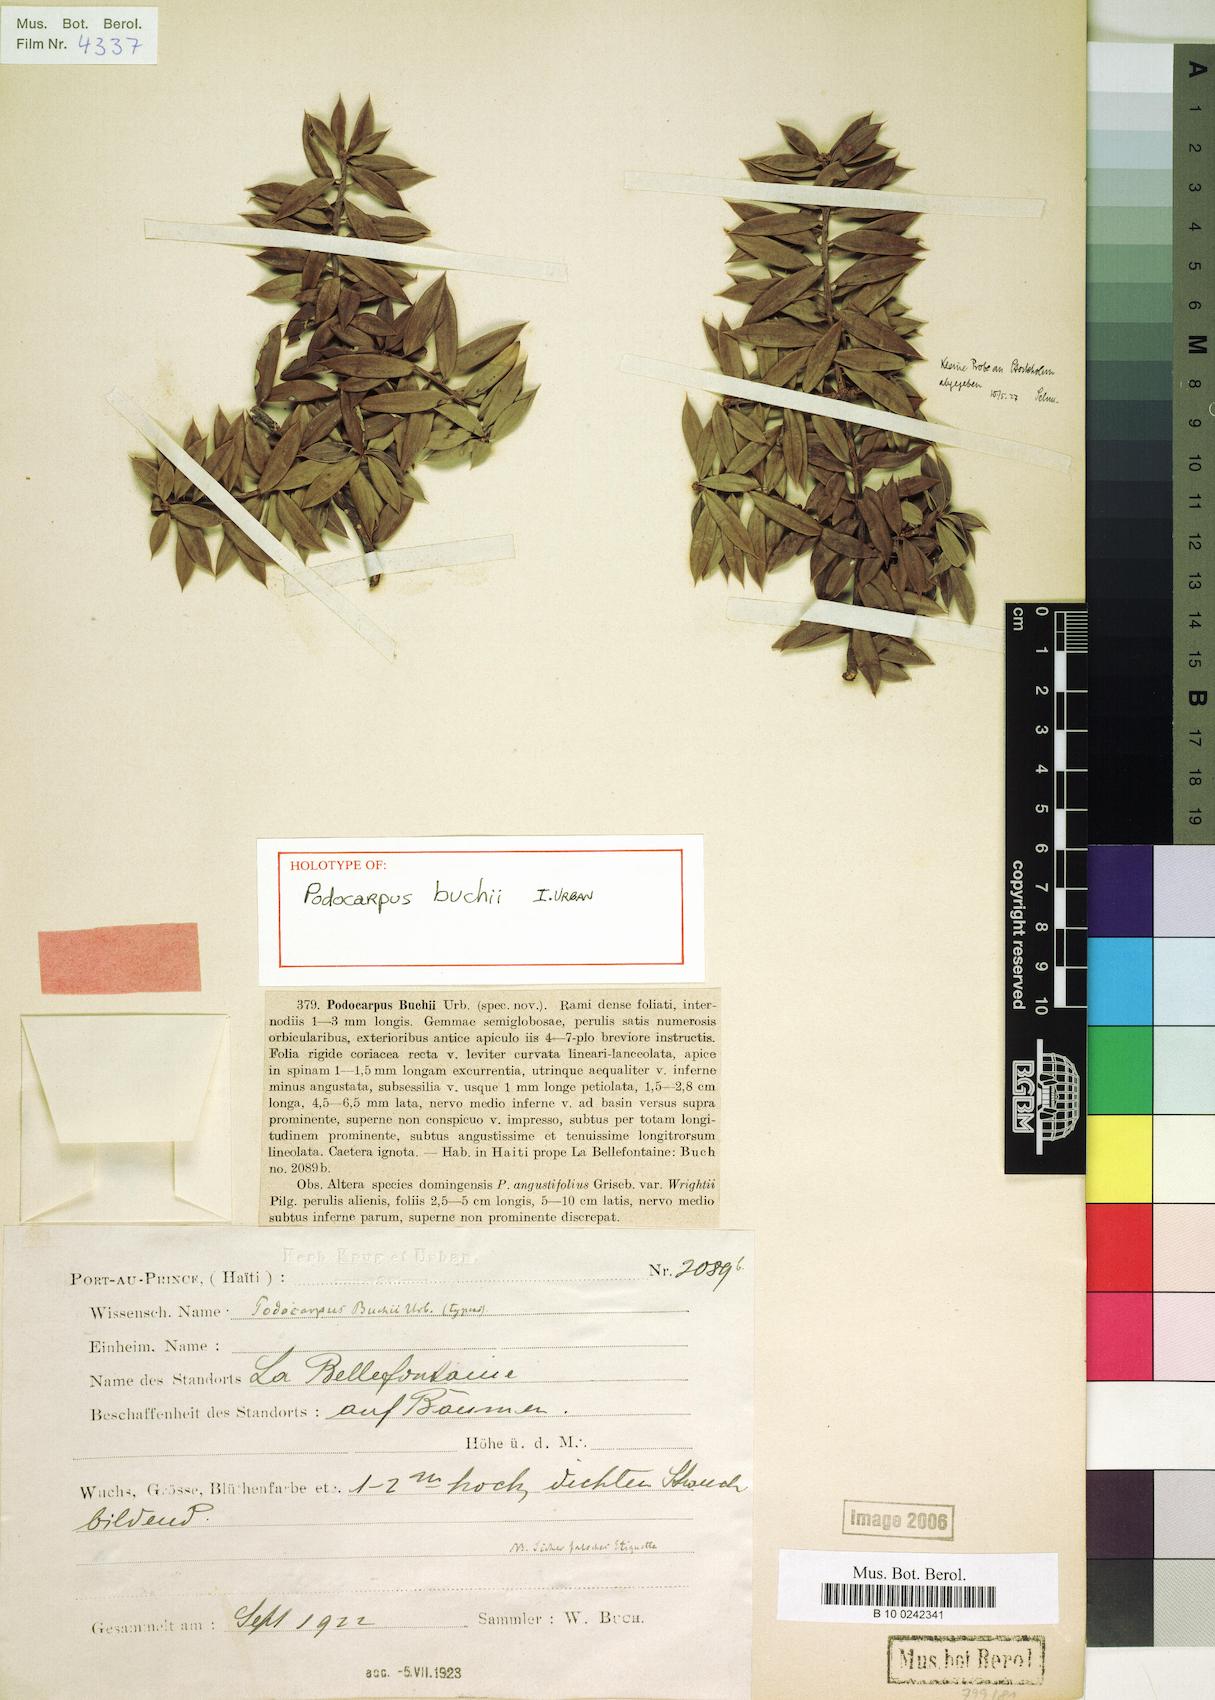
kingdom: Plantae
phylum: Tracheophyta
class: Pinopsida
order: Pinales
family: Podocarpaceae
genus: Podocarpus
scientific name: Podocarpus buchii
